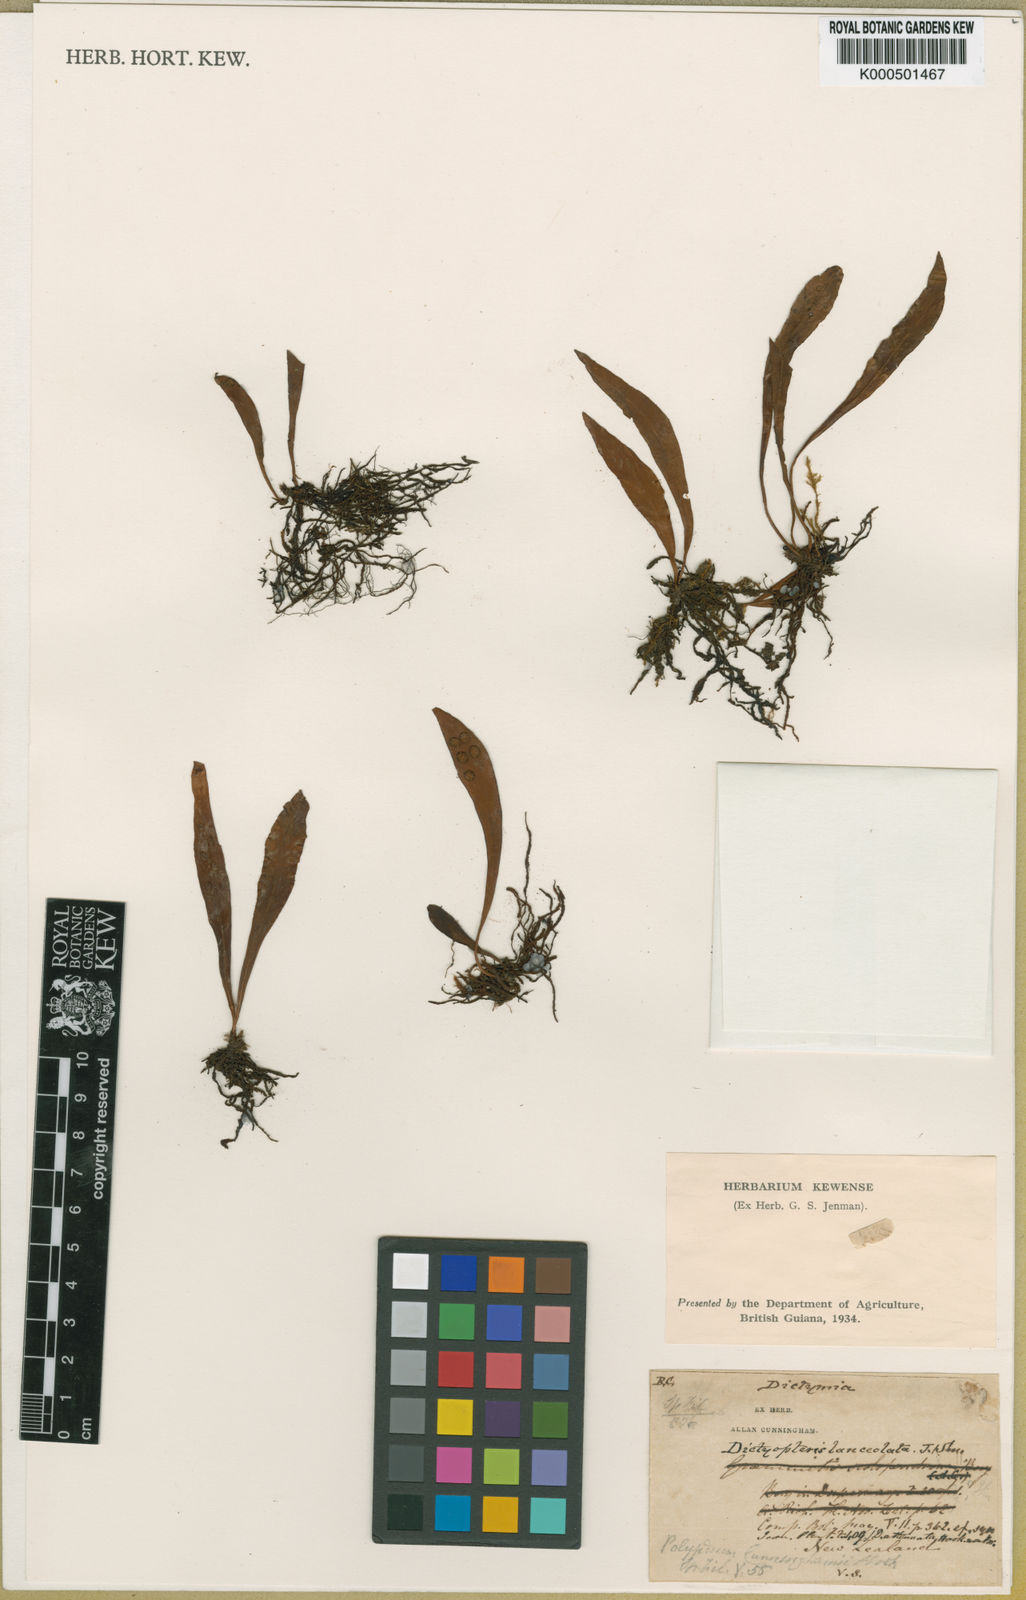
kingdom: Plantae
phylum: Tracheophyta
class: Polypodiopsida
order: Polypodiales
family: Polypodiaceae
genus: Loxogramme
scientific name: Loxogramme dictyopteris
